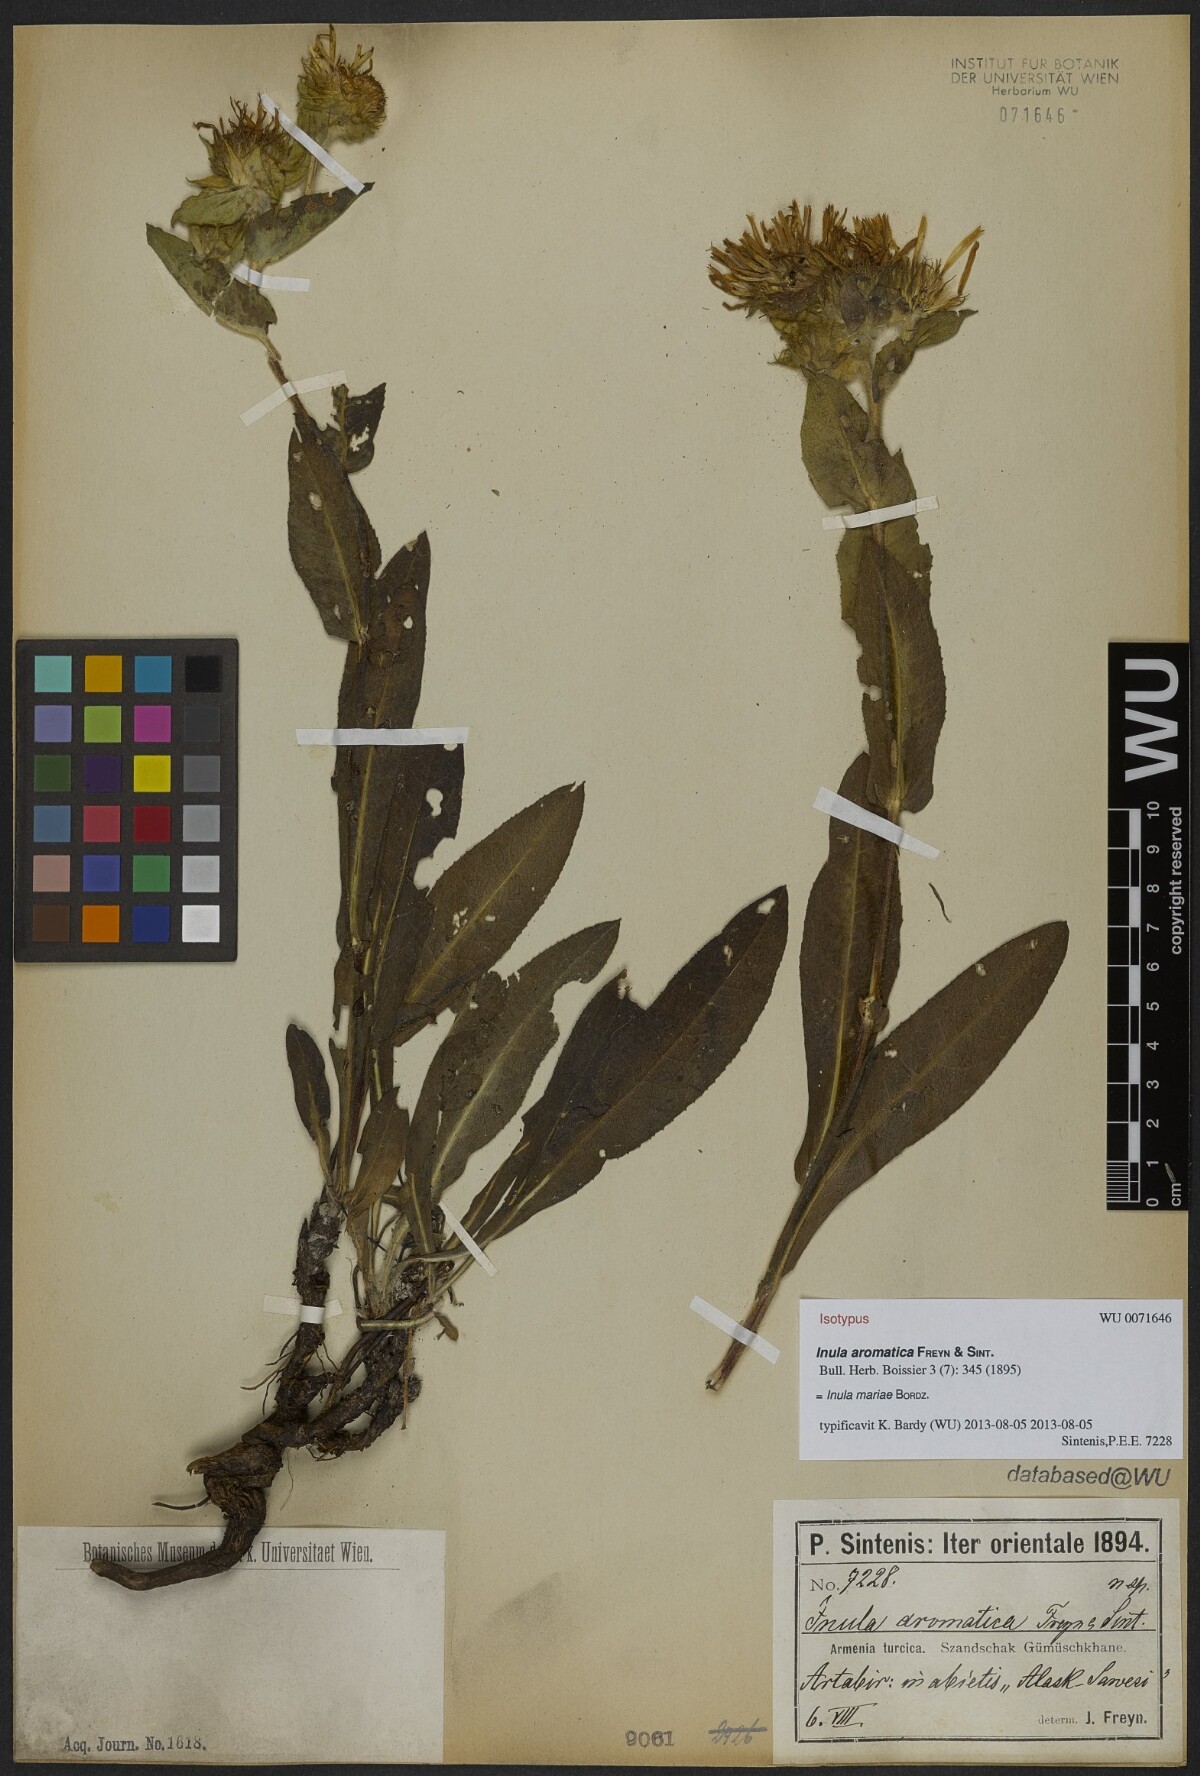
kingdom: Plantae
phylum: Tracheophyta
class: Magnoliopsida
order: Asterales
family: Asteraceae
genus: Inula
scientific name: Inula aromatica
